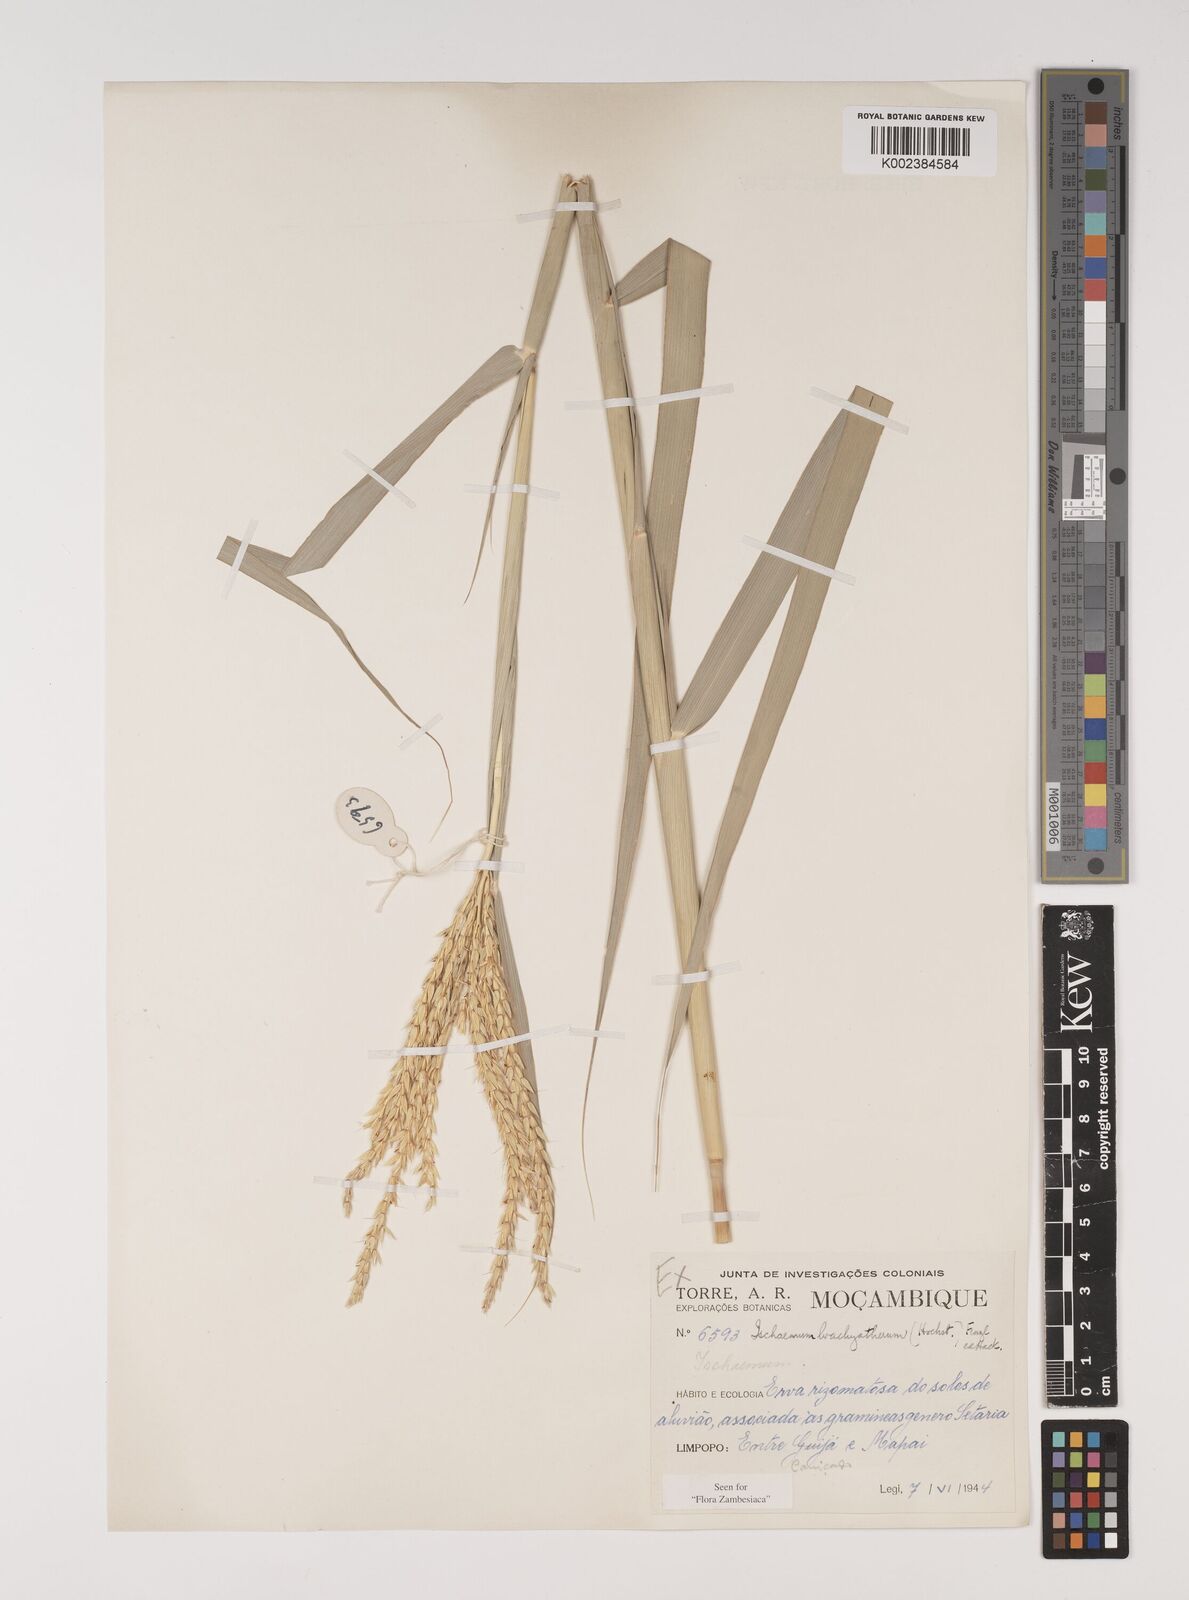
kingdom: Plantae
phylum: Tracheophyta
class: Liliopsida
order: Poales
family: Poaceae
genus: Ischaemum
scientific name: Ischaemum afrum
